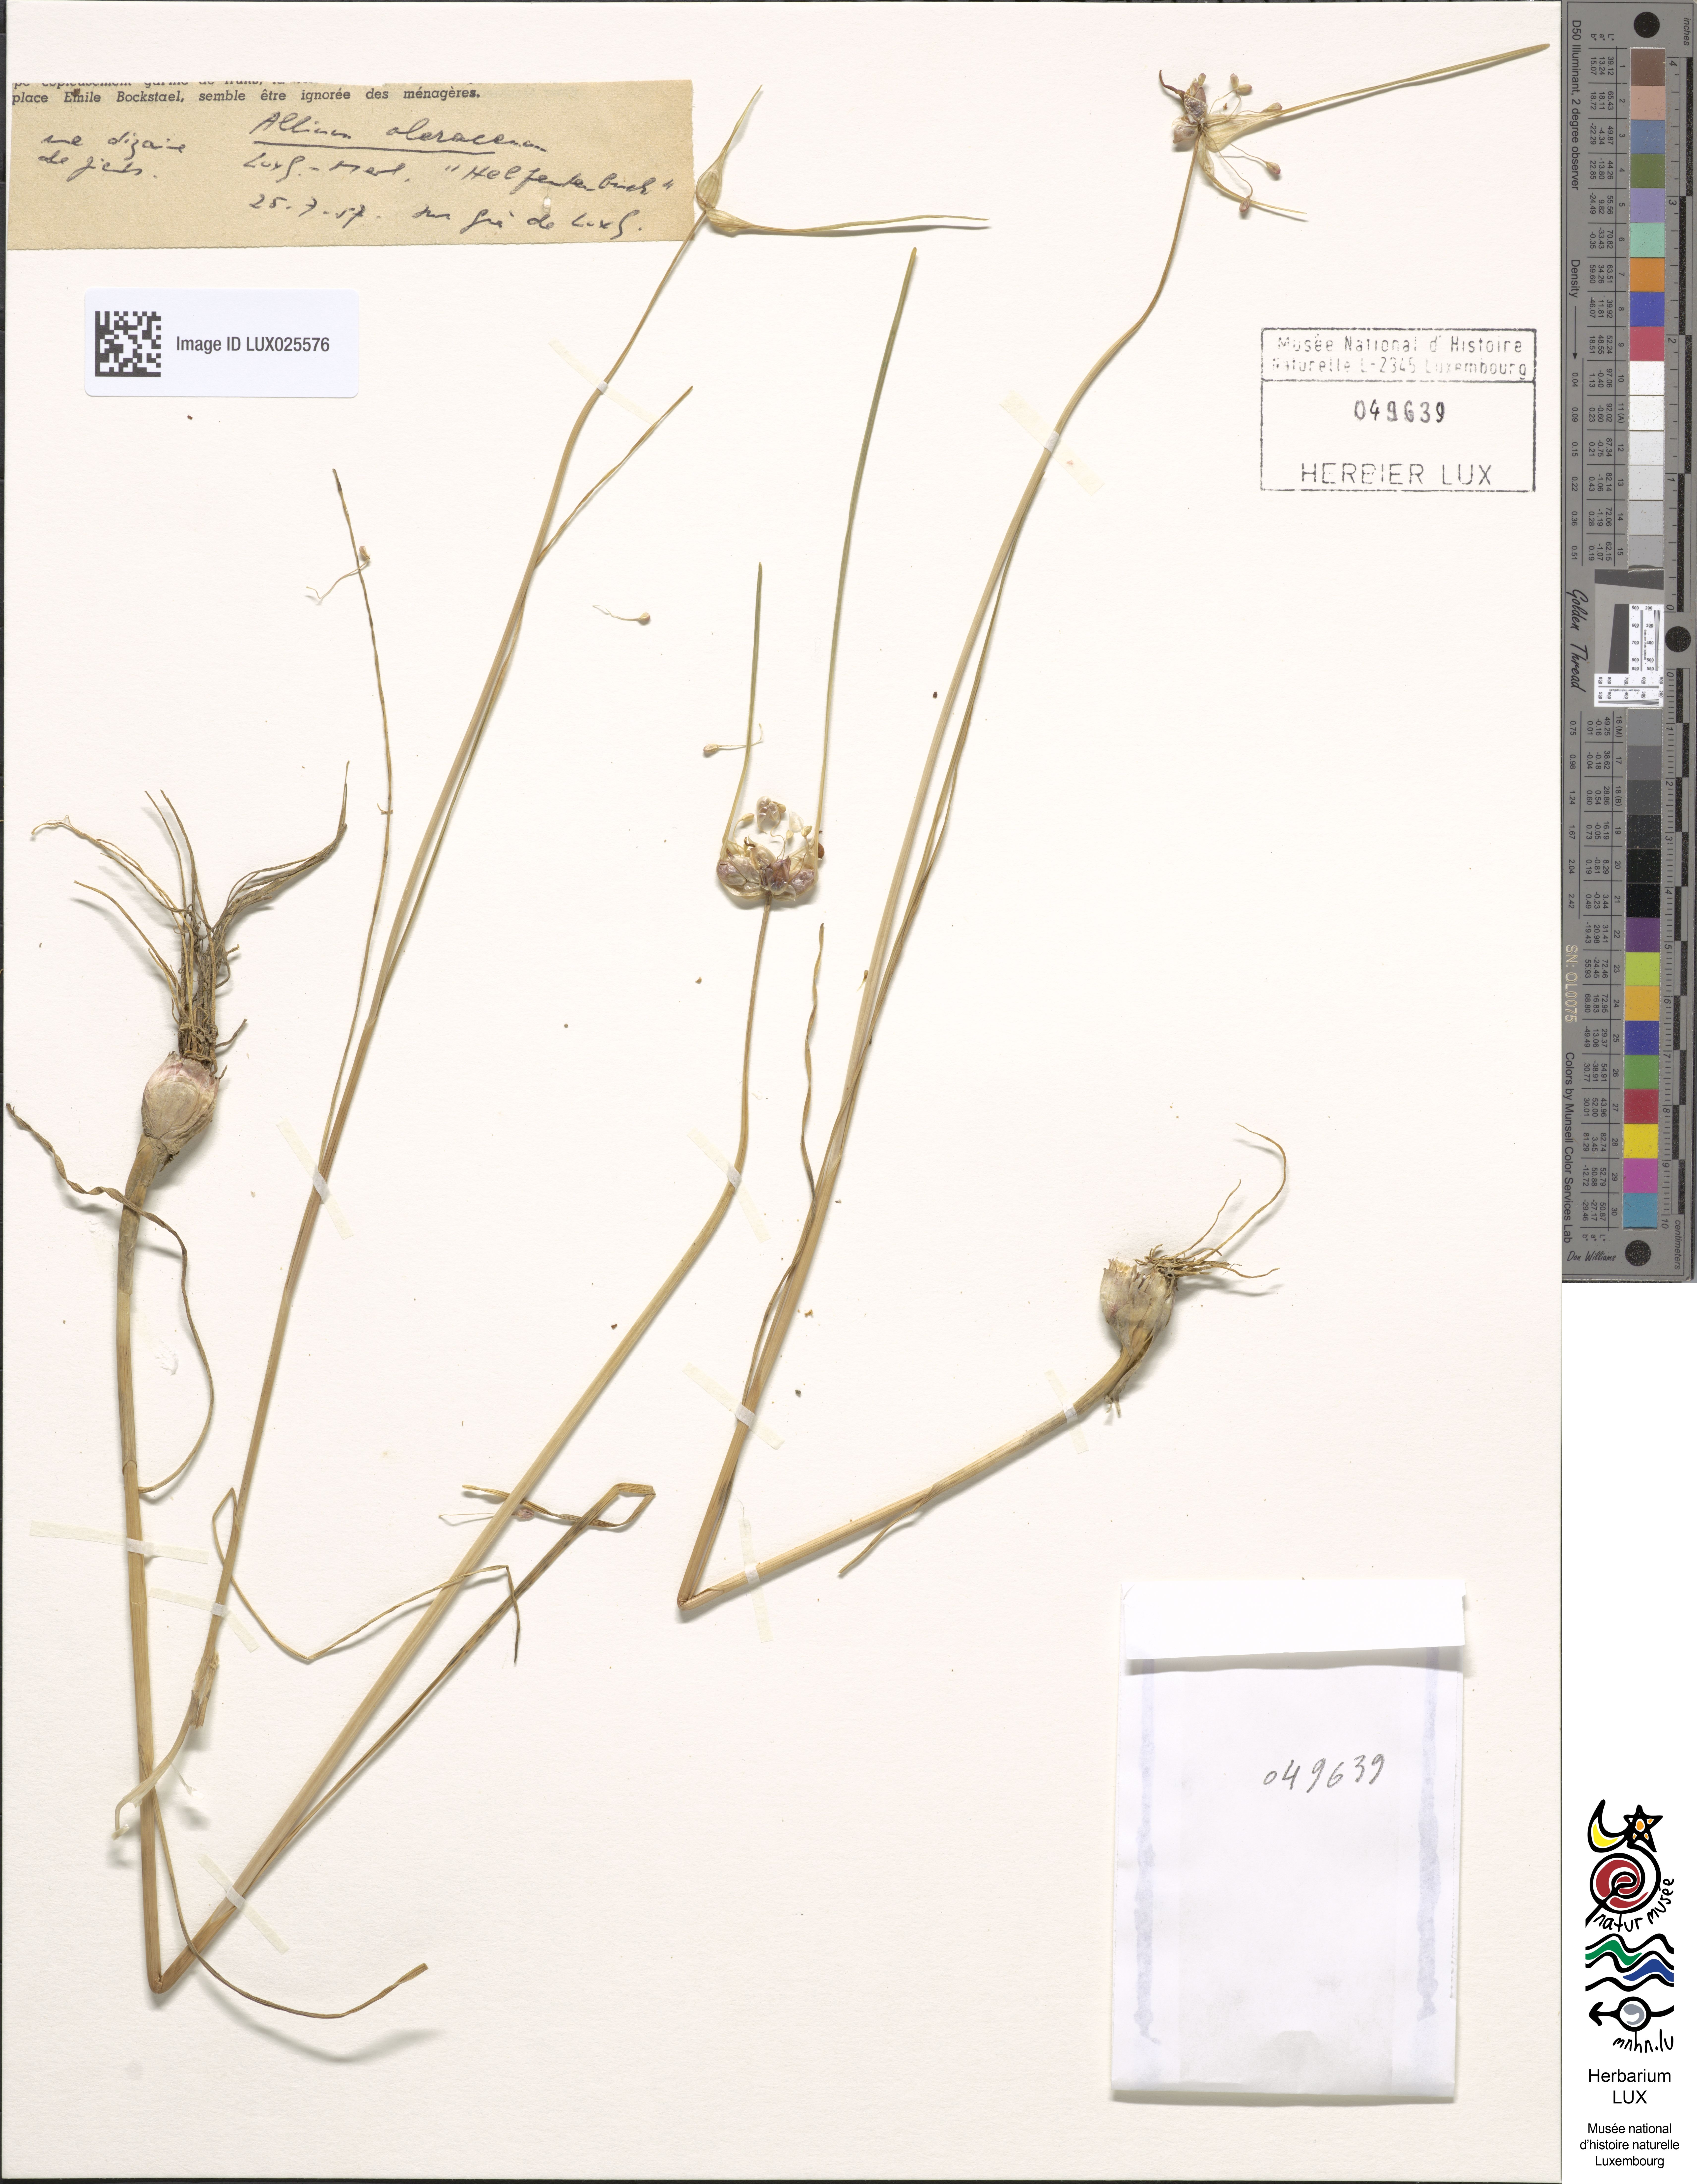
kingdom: Plantae
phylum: Tracheophyta
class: Liliopsida
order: Asparagales
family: Amaryllidaceae
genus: Allium
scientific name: Allium oleraceum
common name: Field garlic
